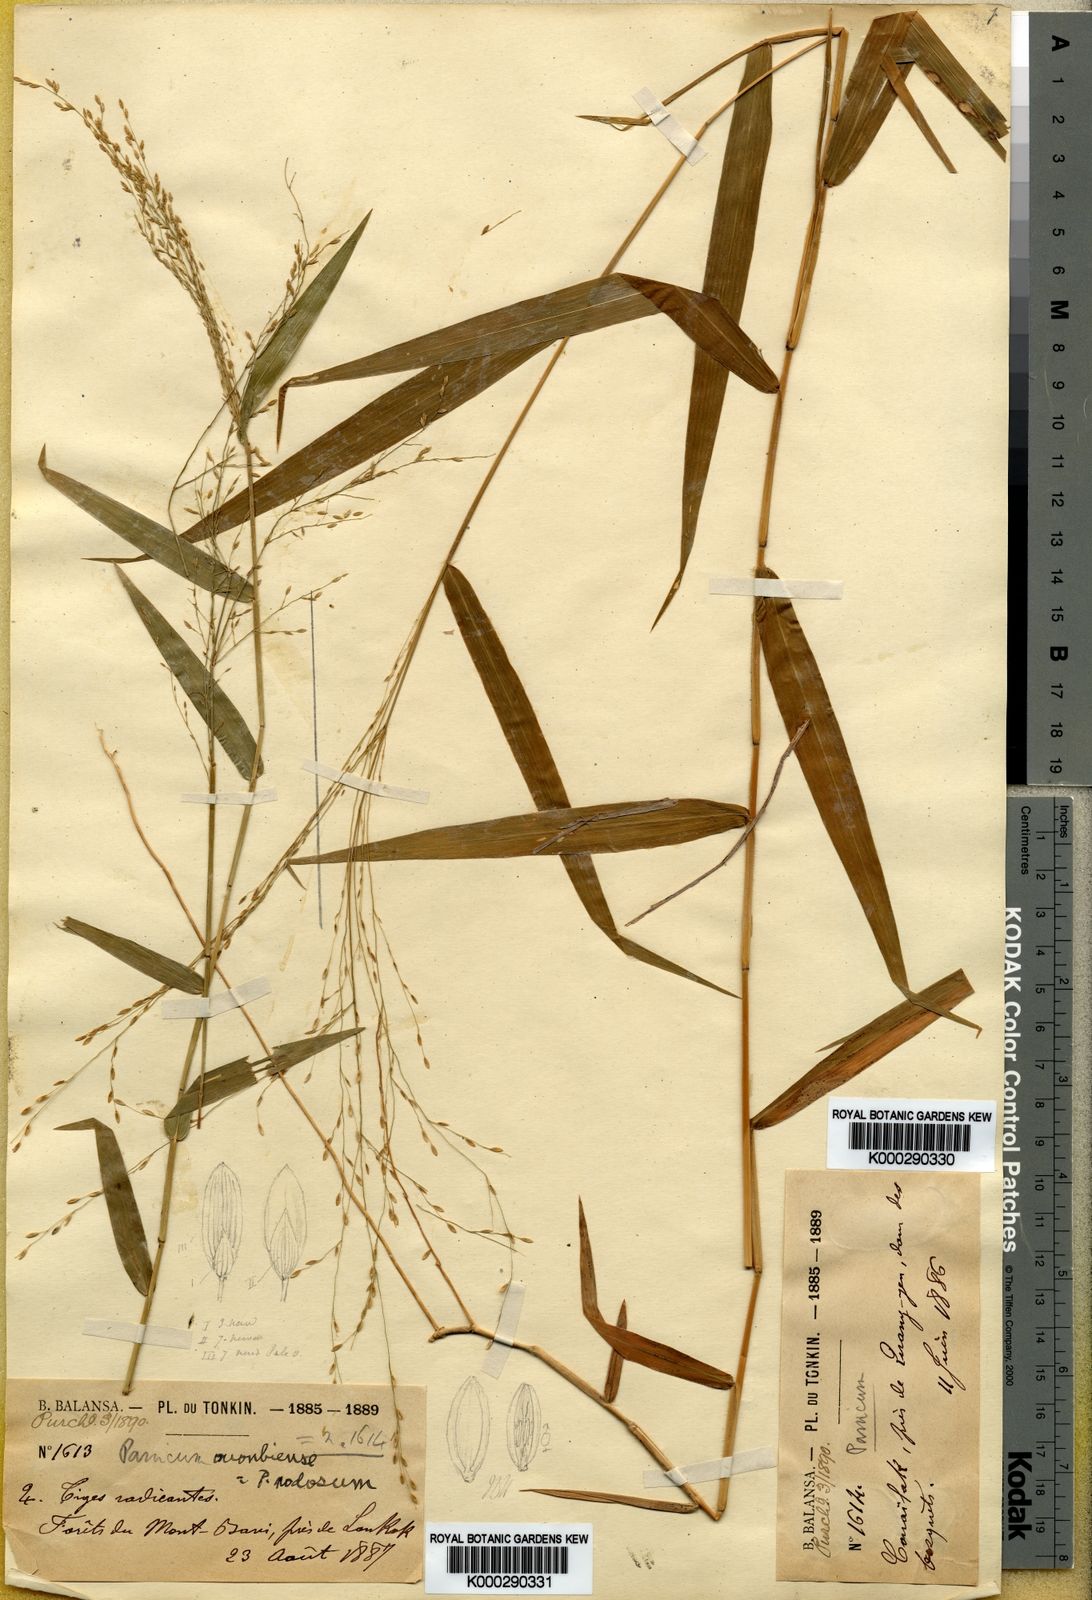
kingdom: Plantae
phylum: Tracheophyta
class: Liliopsida
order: Poales
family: Poaceae
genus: Ottochloa
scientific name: Ottochloa nodosa
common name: Slender-panic grass
